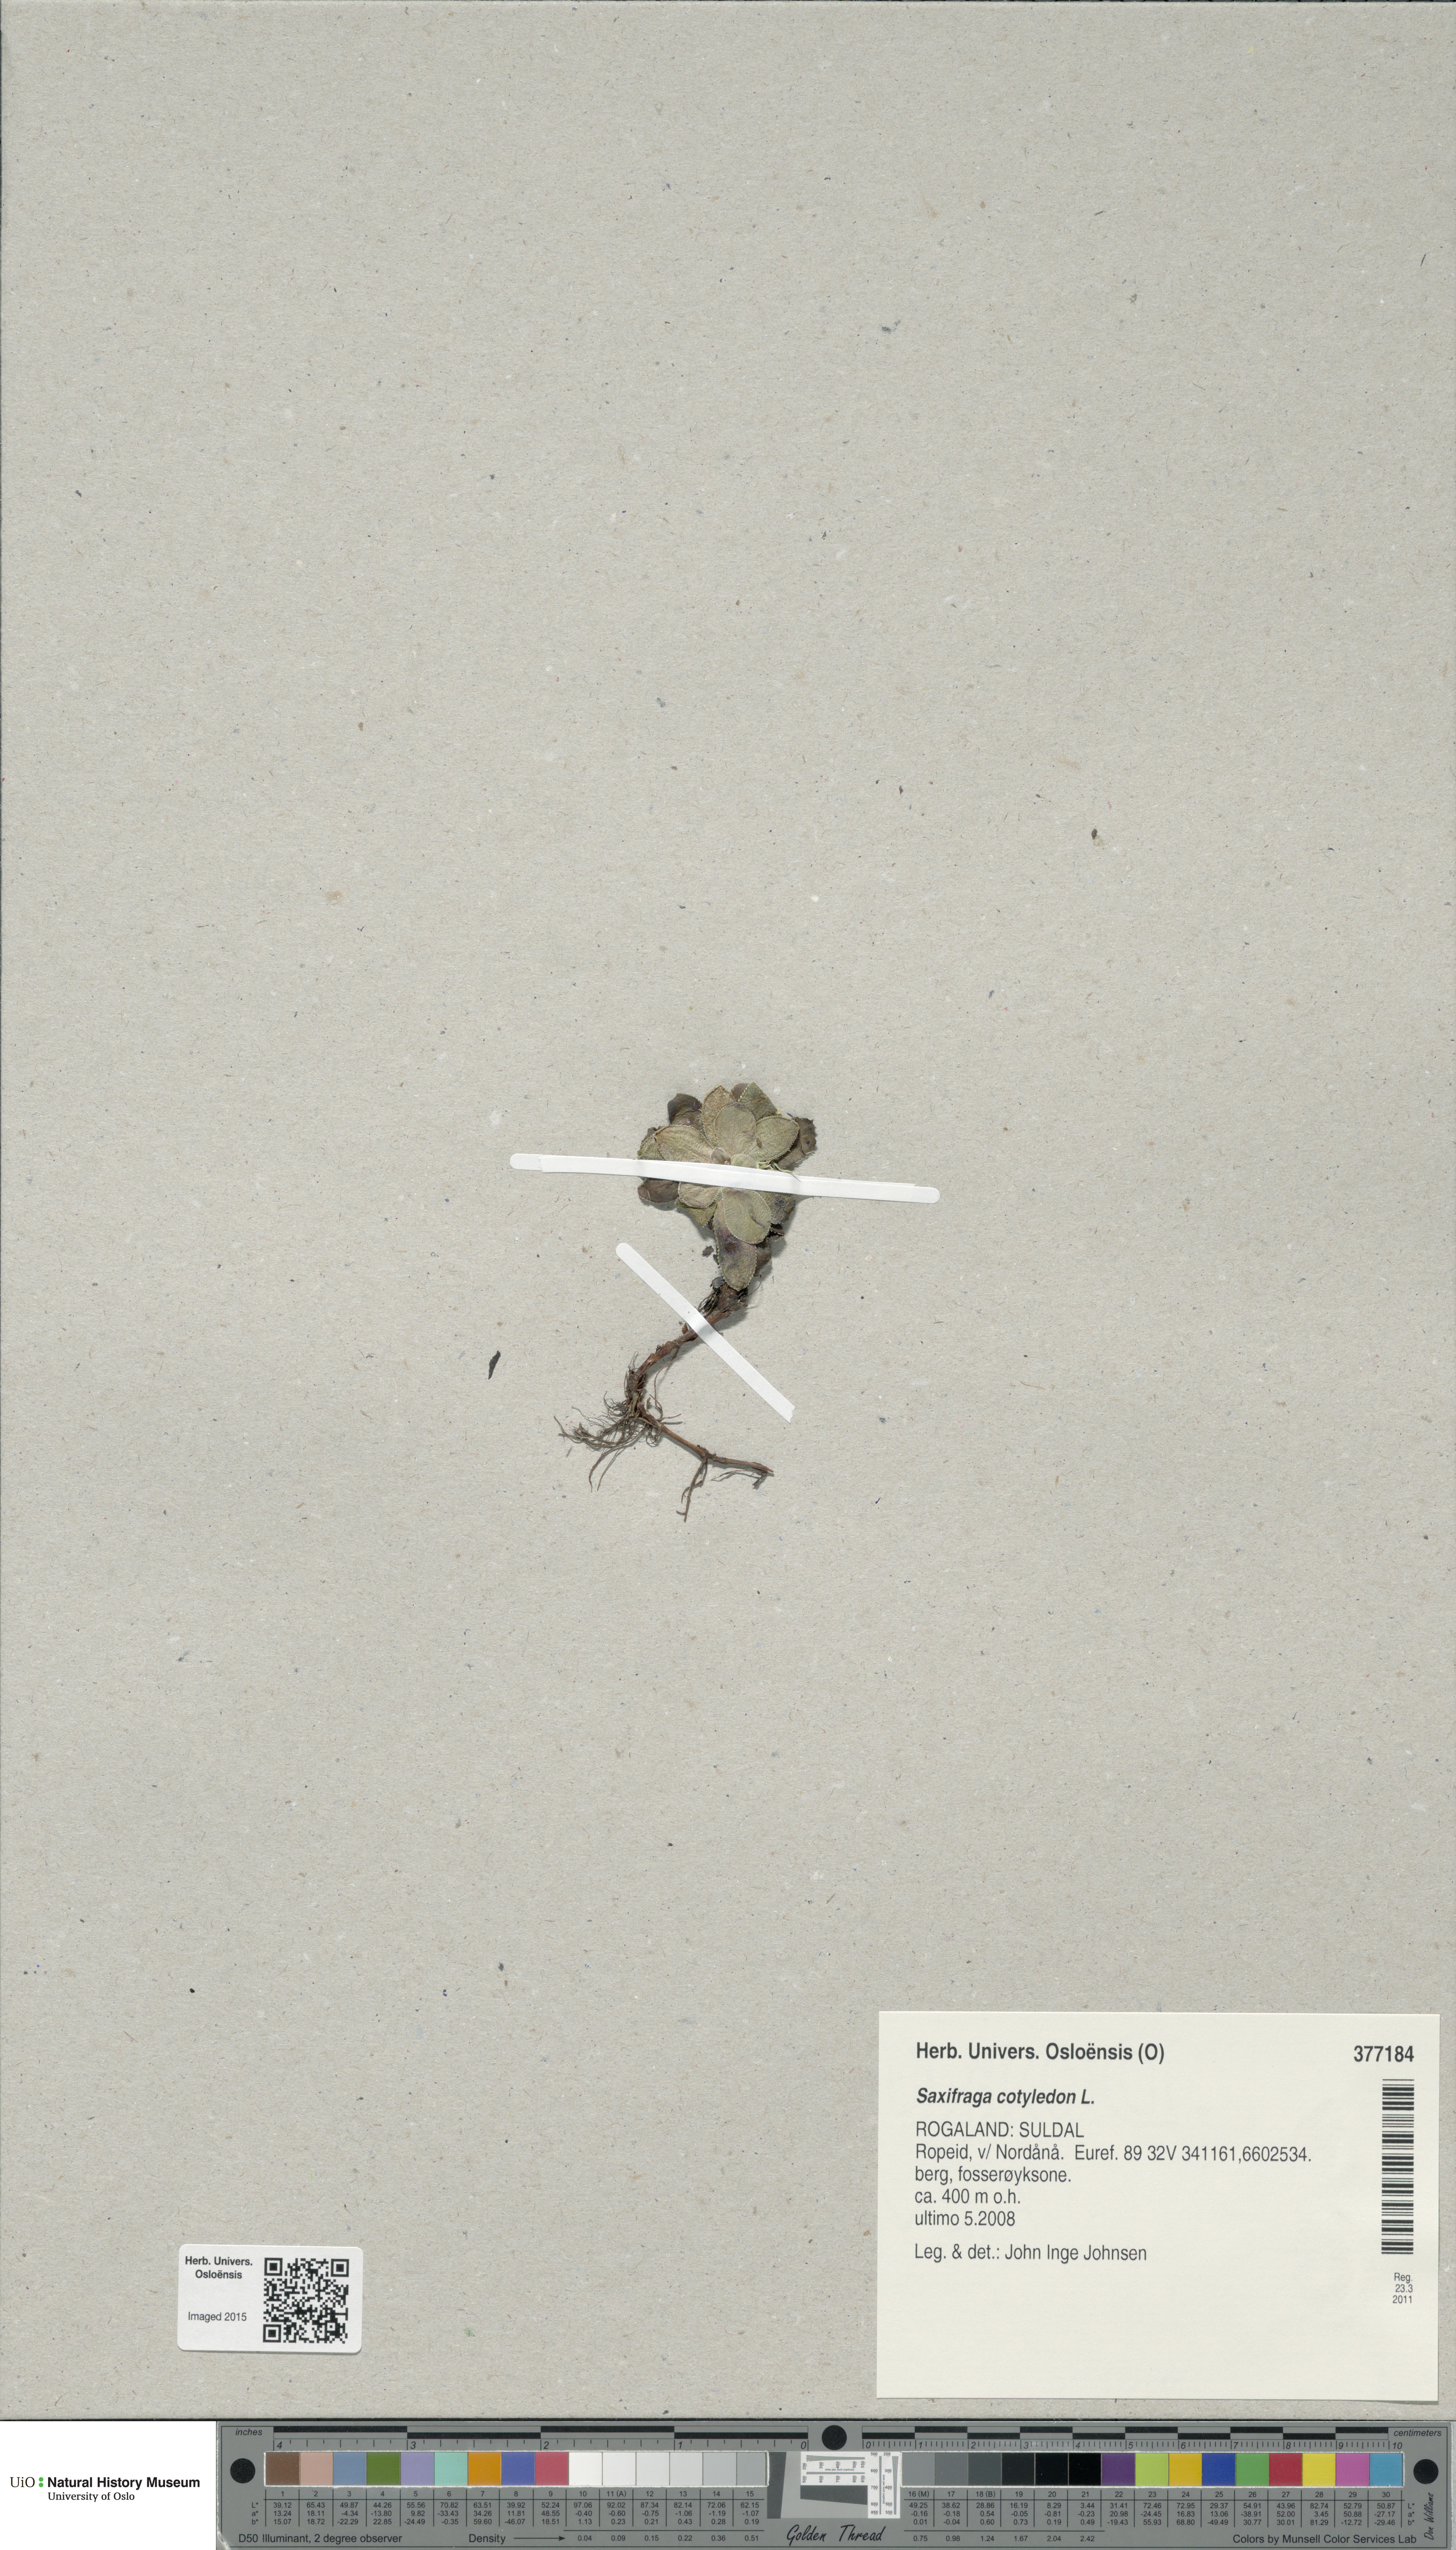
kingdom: Plantae
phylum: Tracheophyta
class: Magnoliopsida
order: Saxifragales
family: Saxifragaceae
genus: Saxifraga
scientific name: Saxifraga cotyledon
